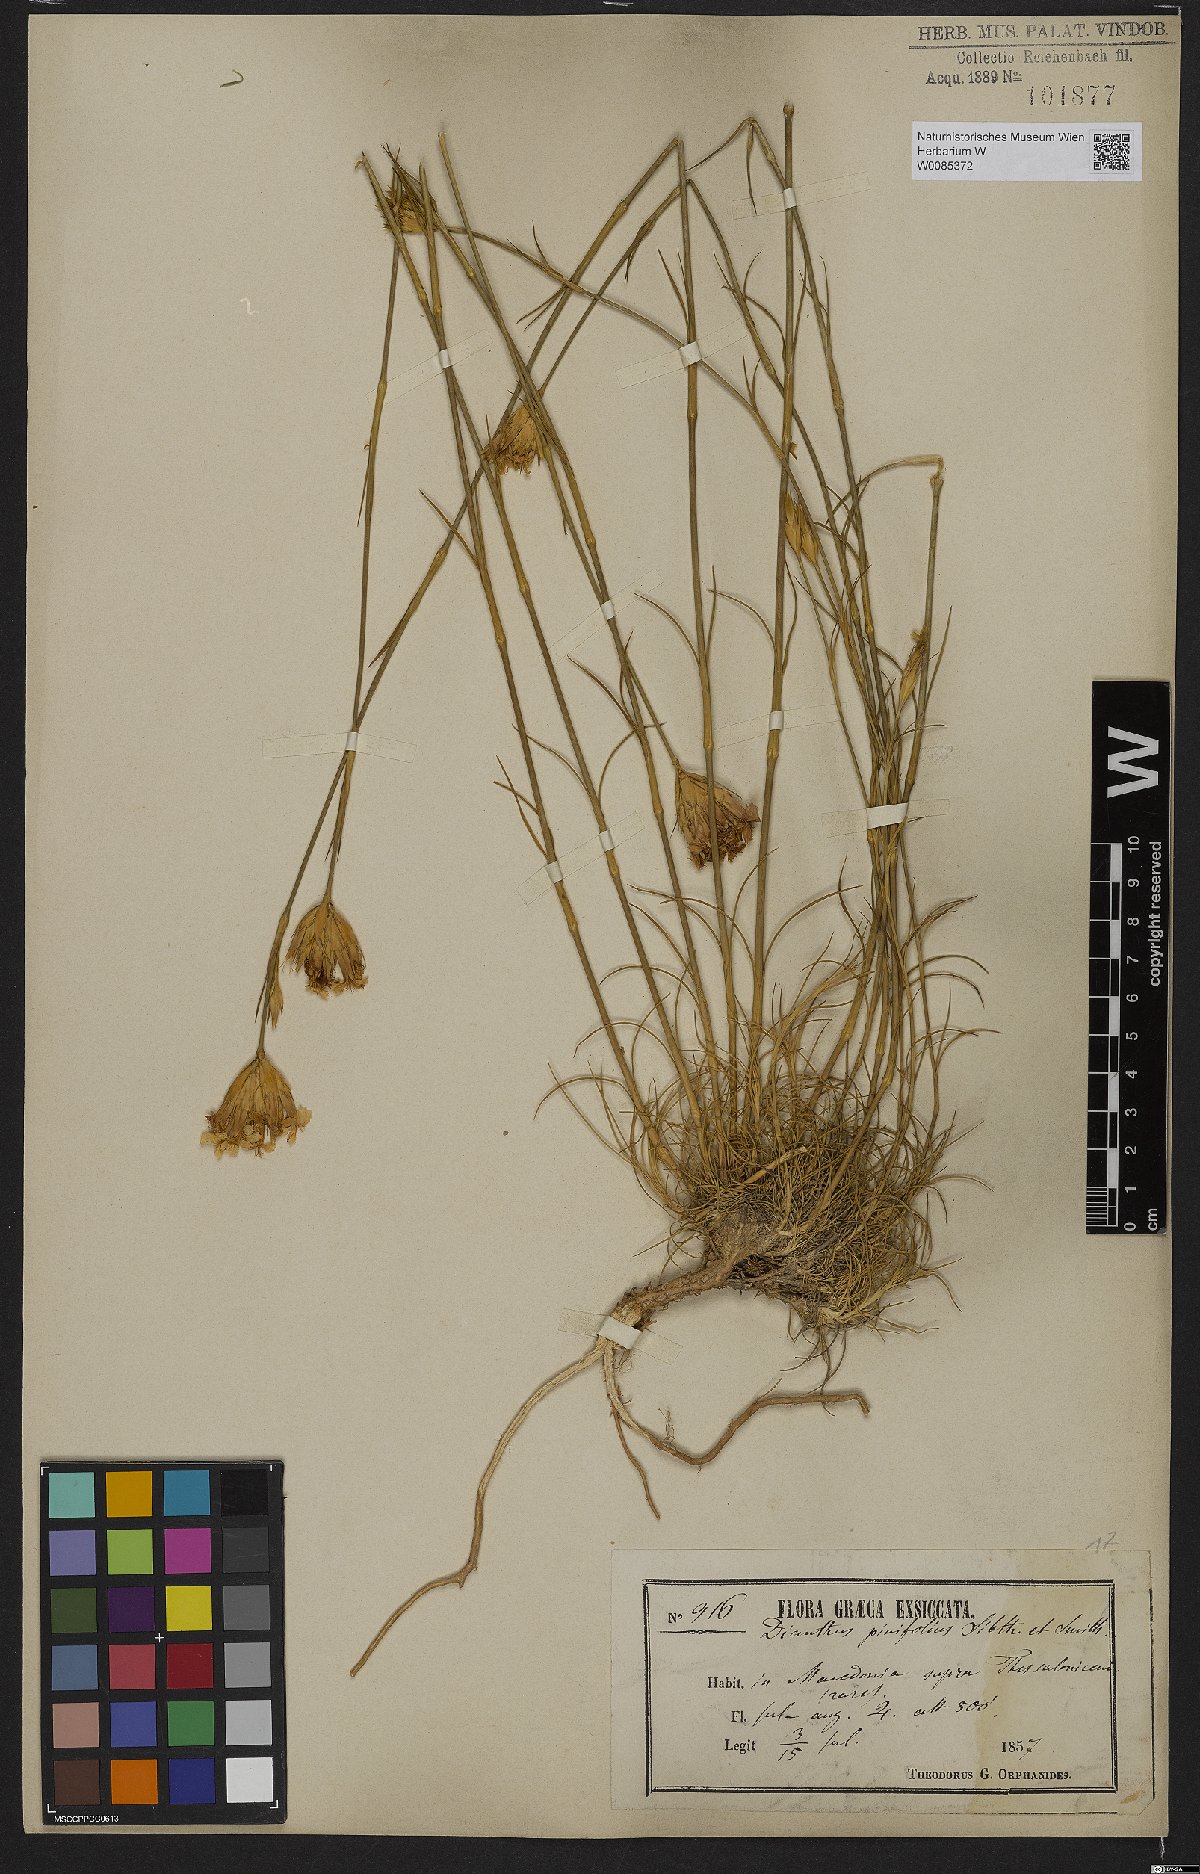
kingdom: Plantae
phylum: Tracheophyta
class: Magnoliopsida
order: Caryophyllales
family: Caryophyllaceae
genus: Dianthus
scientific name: Dianthus pinifolius
